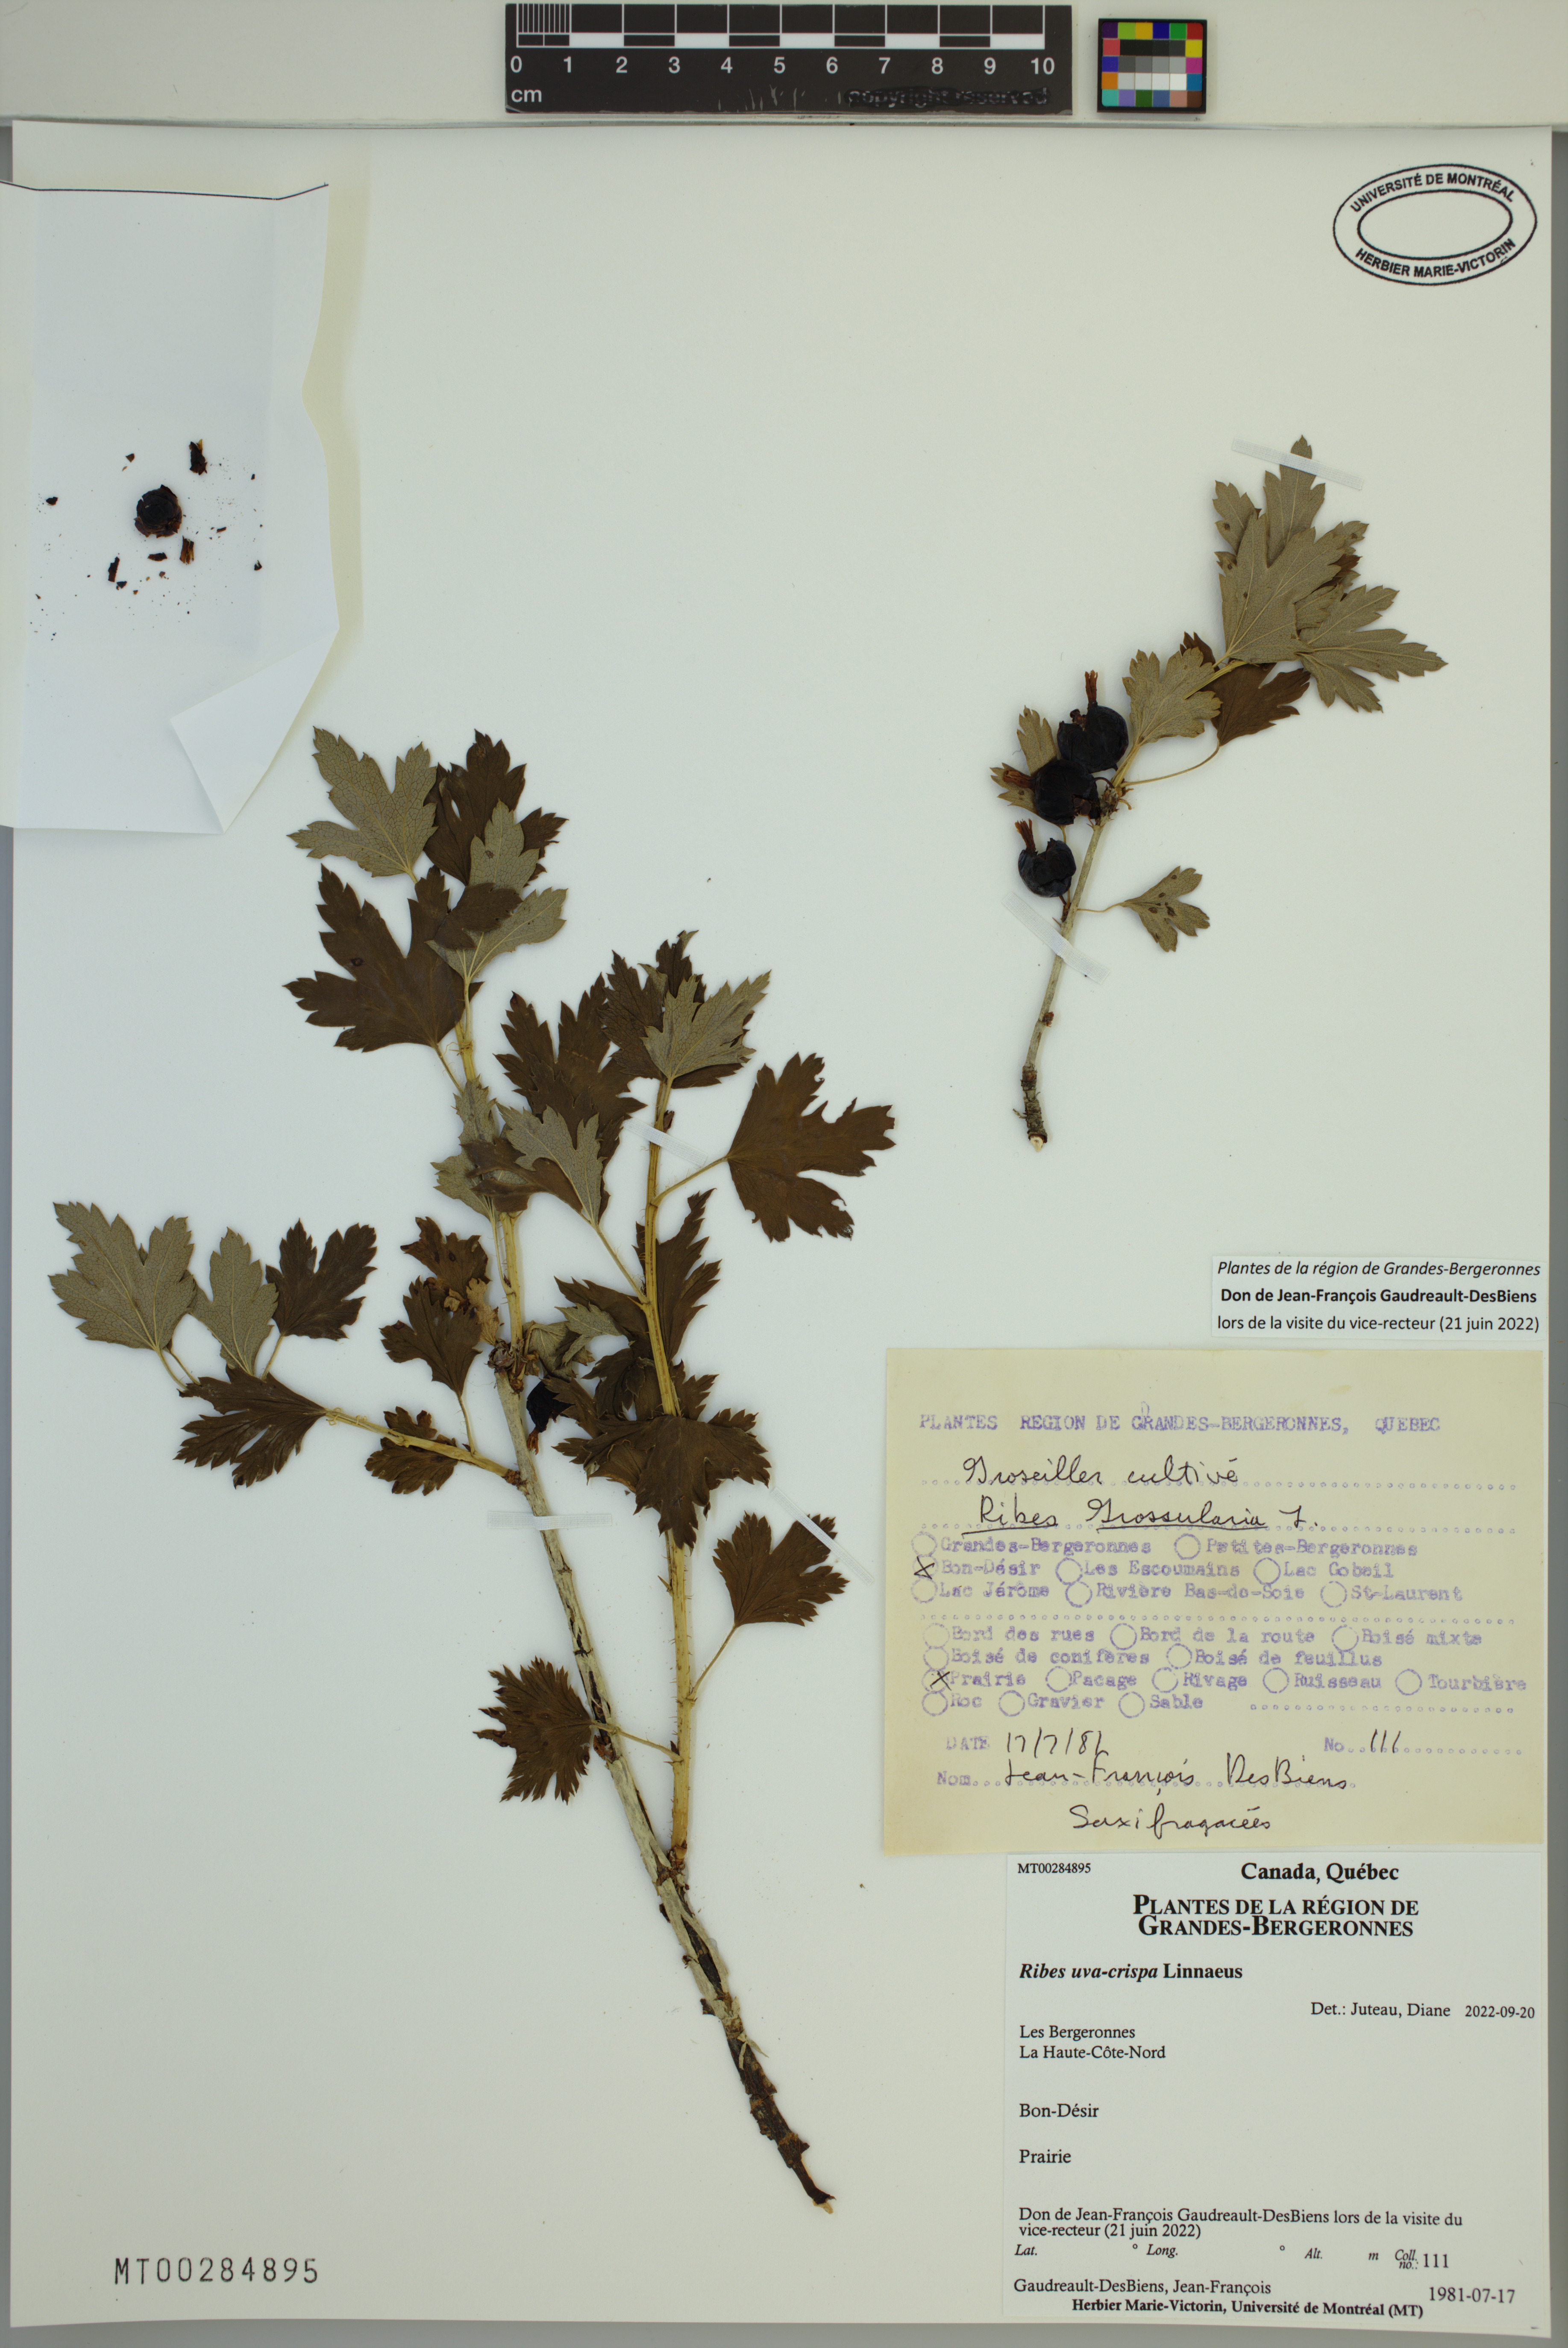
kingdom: Plantae
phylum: Tracheophyta
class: Magnoliopsida
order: Saxifragales
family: Grossulariaceae
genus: Ribes
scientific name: Ribes uva-crispa
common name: Gooseberry
